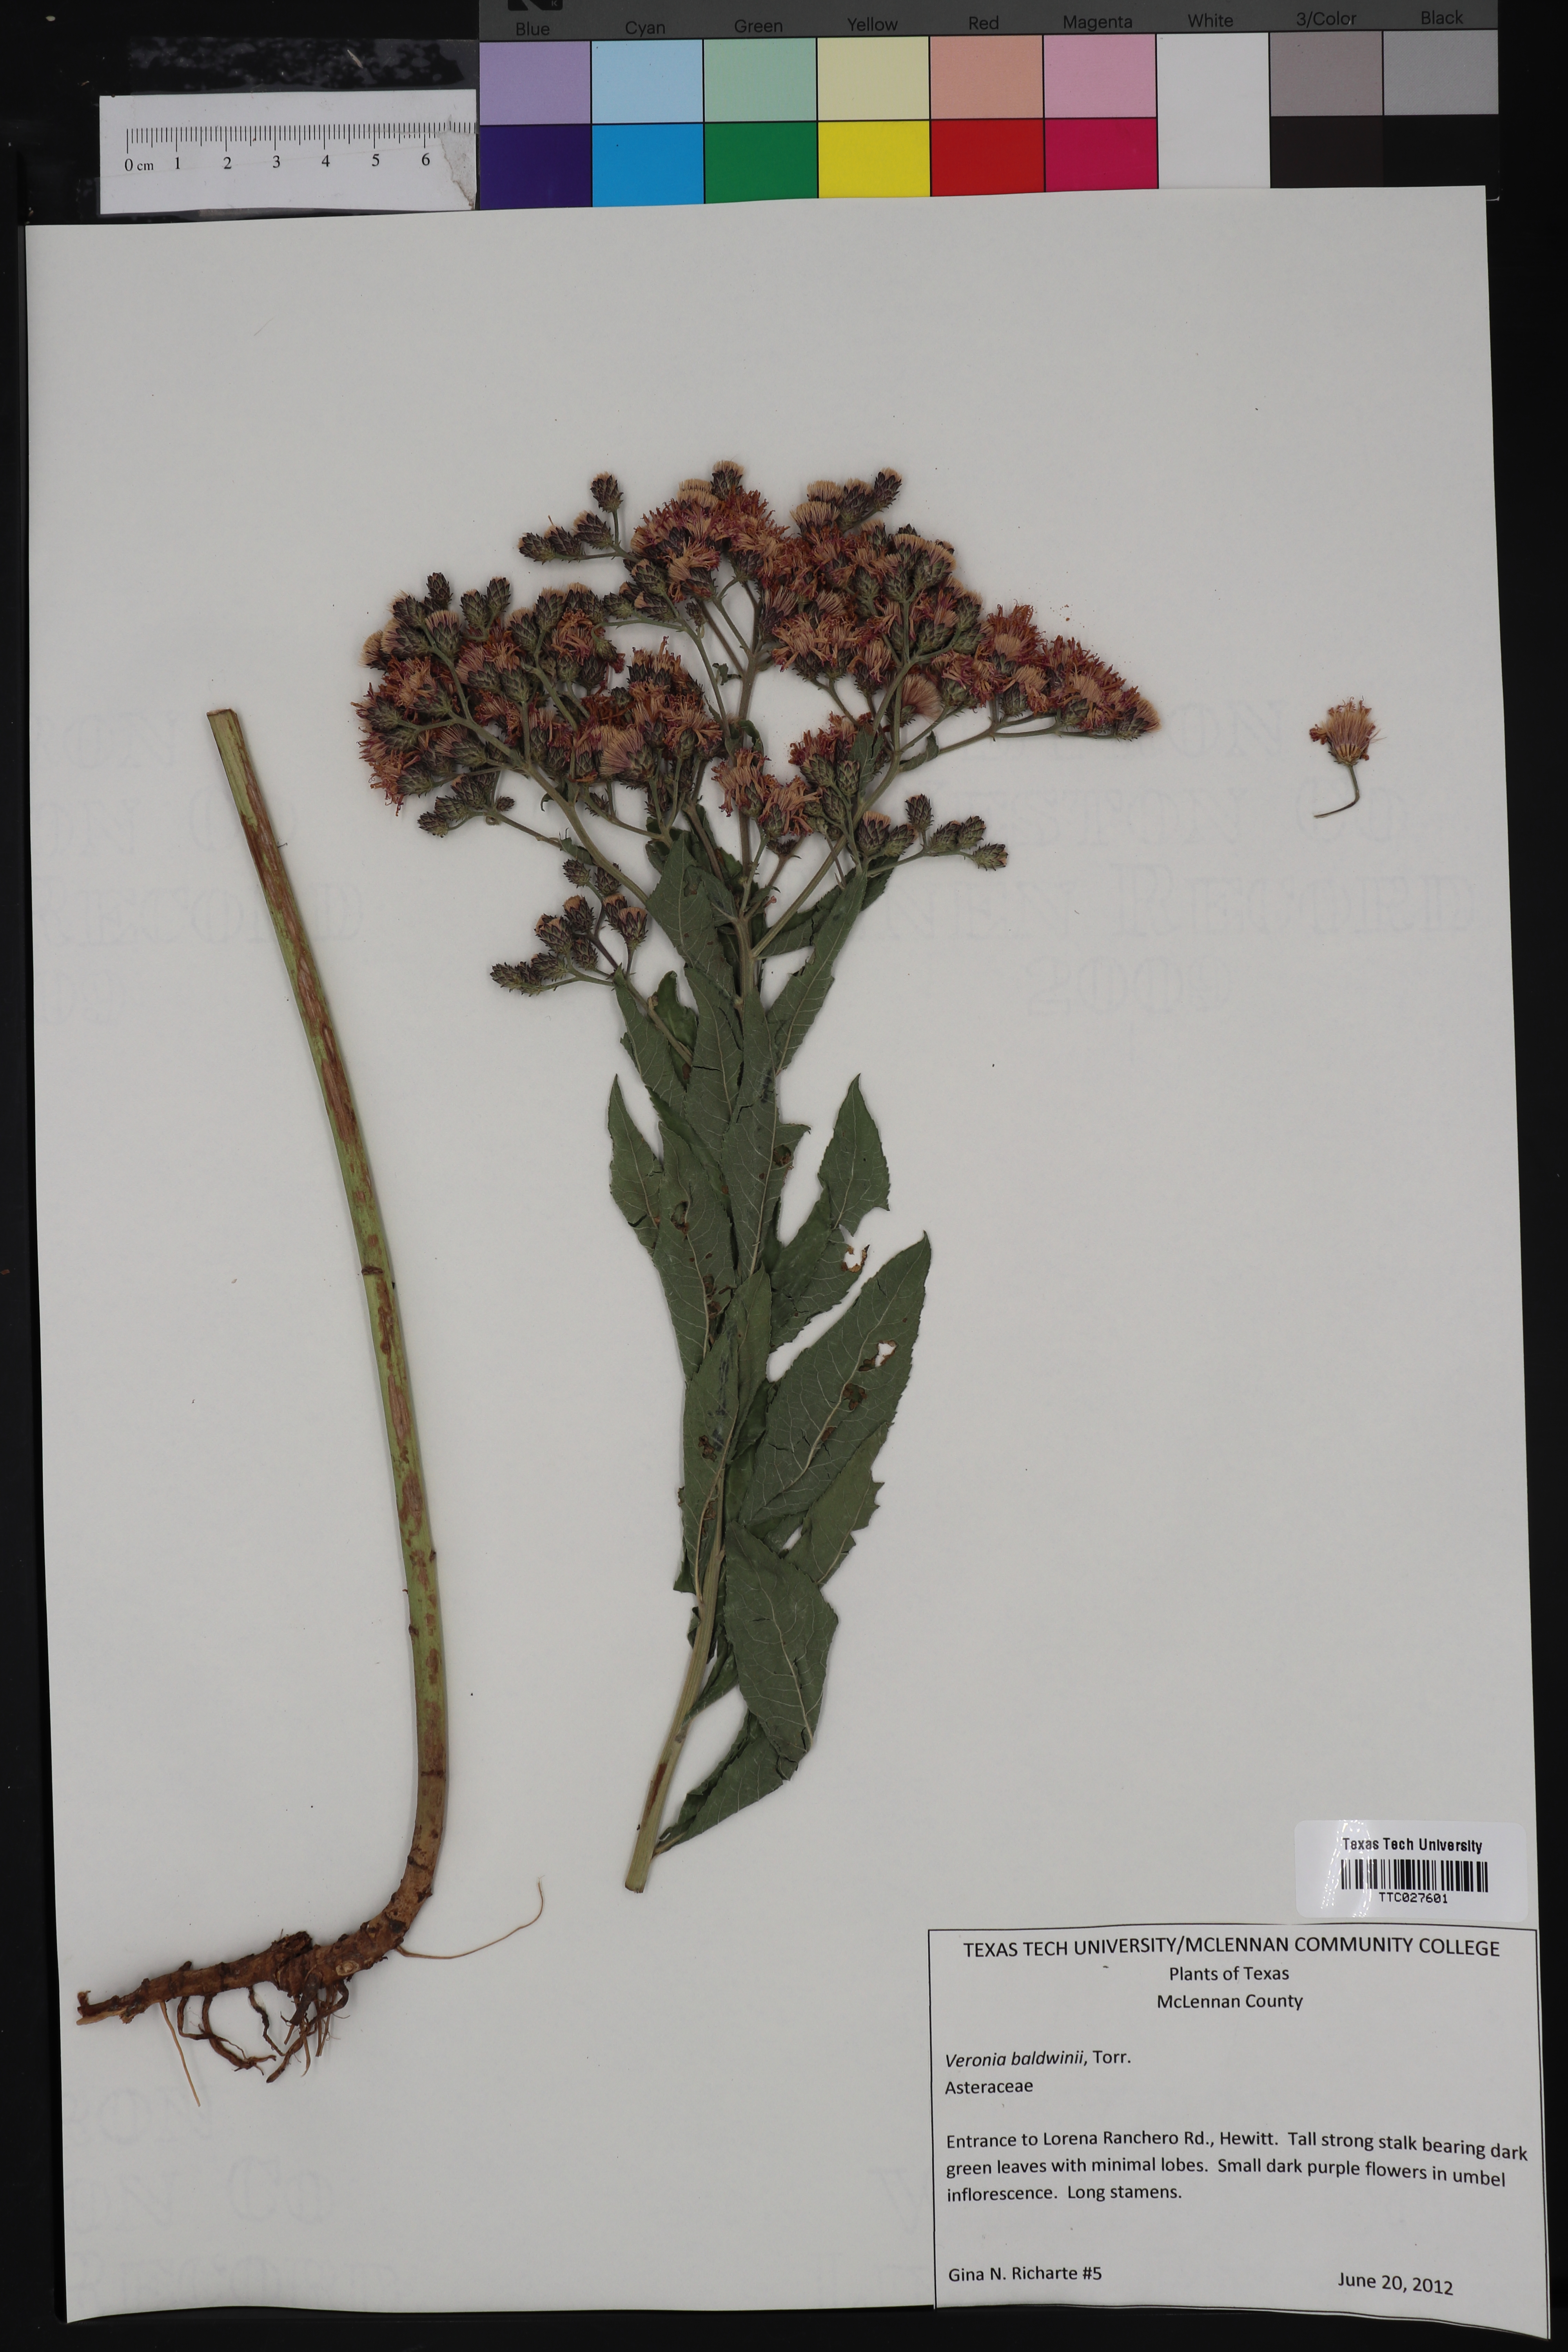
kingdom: Plantae
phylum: Tracheophyta
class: Magnoliopsida
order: Asterales
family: Asteraceae
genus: Vernonia
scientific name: Vernonia baldwinii
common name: Western ironweed
